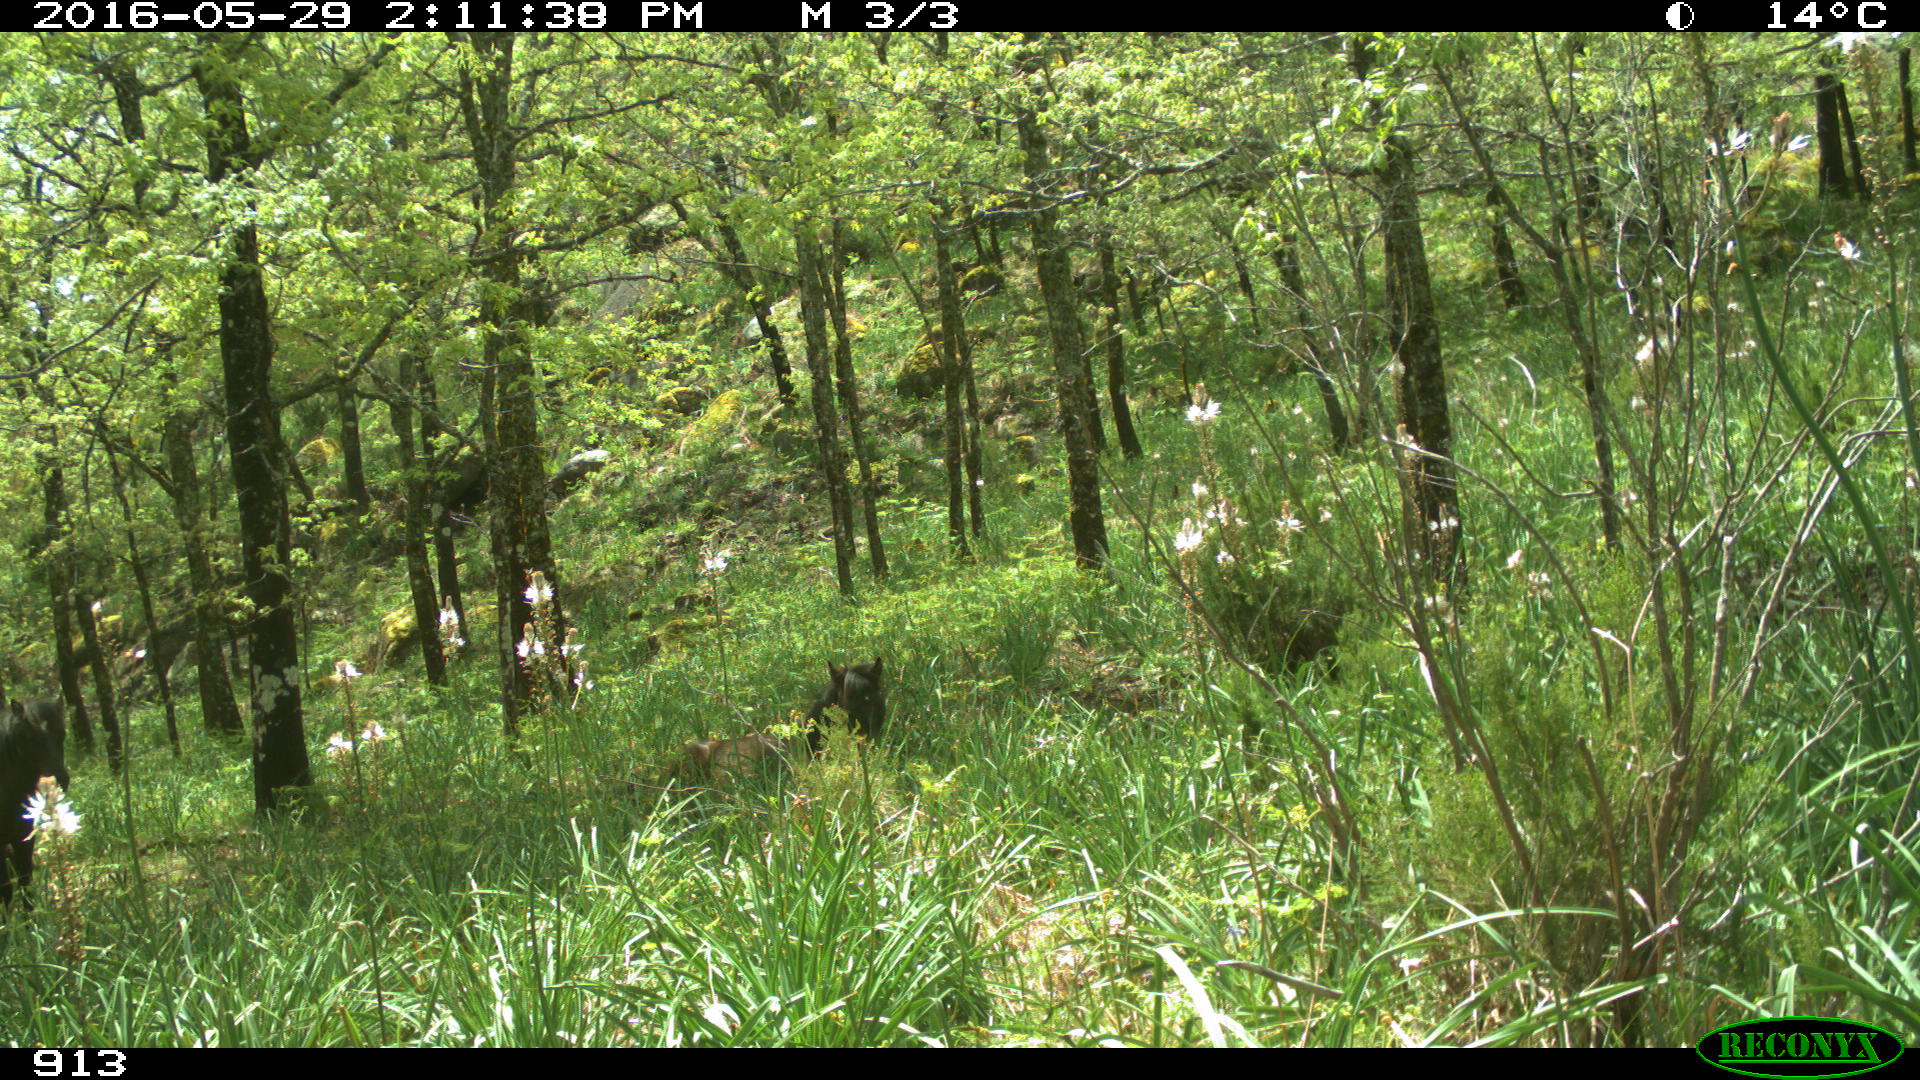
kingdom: Animalia
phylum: Chordata
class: Mammalia
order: Perissodactyla
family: Equidae
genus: Equus
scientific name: Equus caballus
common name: Horse
